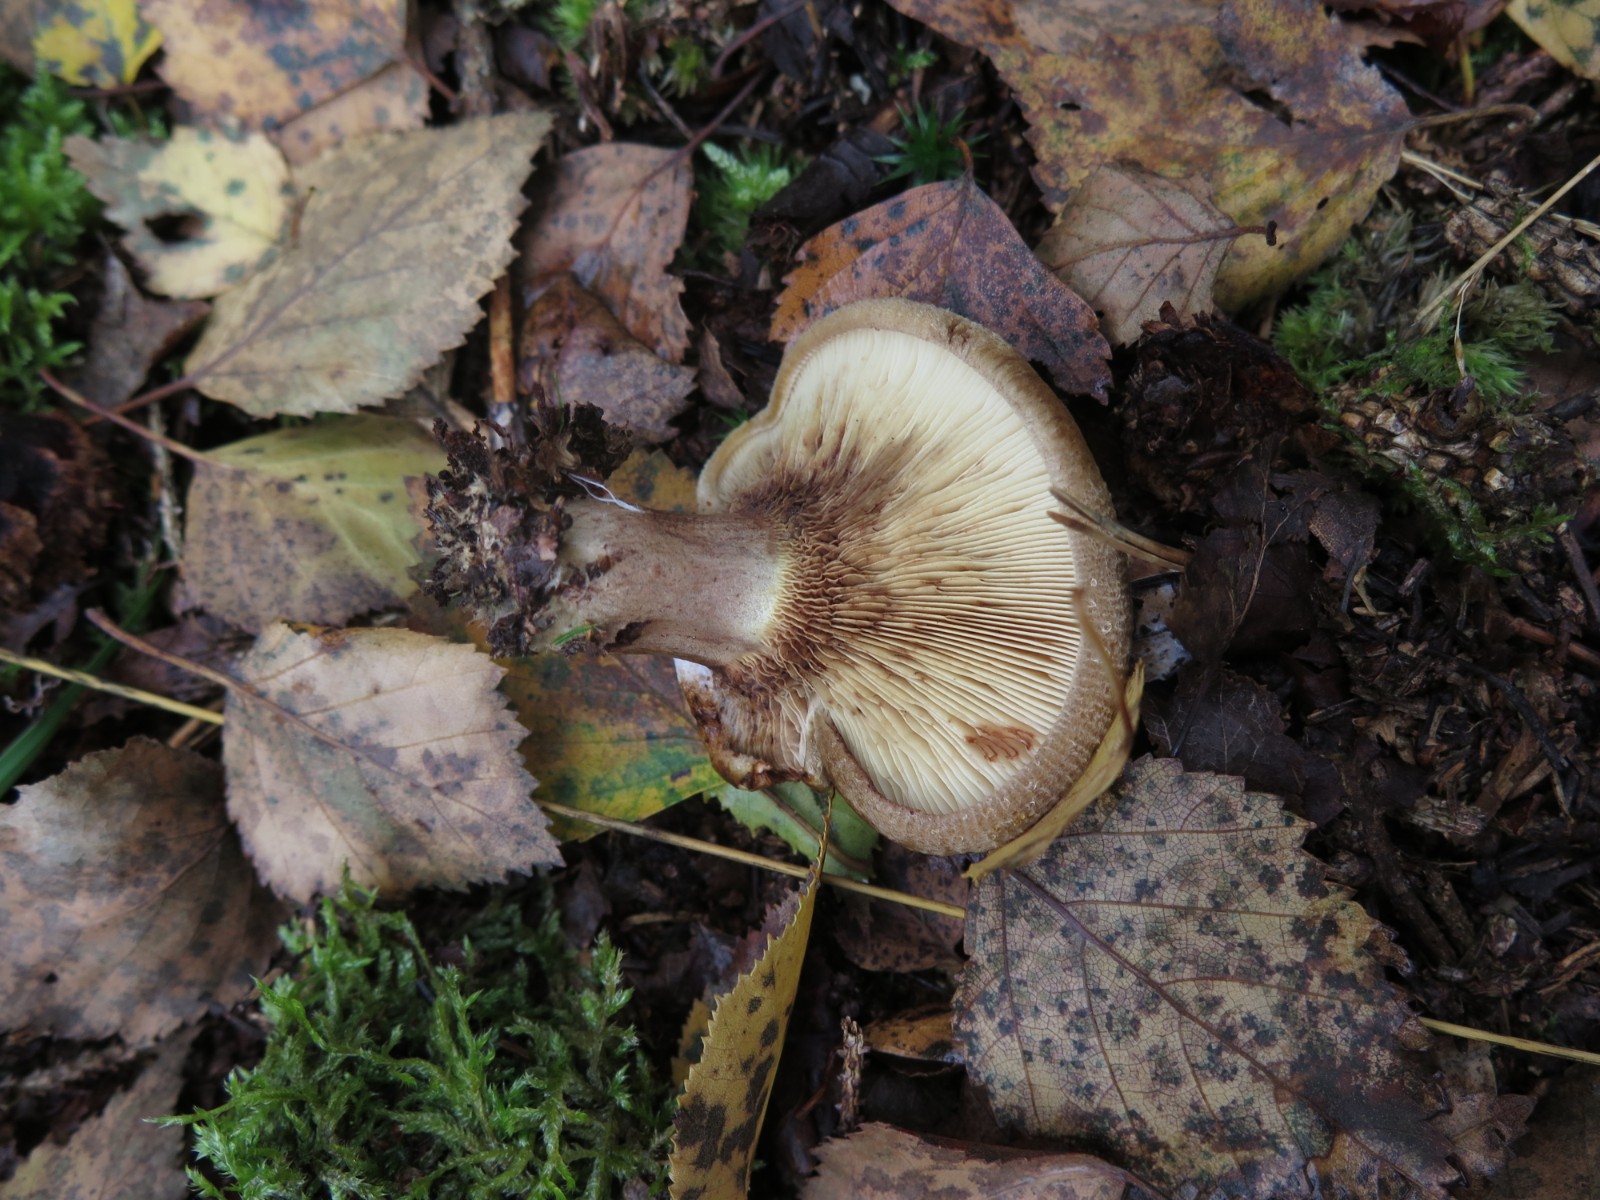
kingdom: Fungi
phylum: Basidiomycota
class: Agaricomycetes
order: Boletales
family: Paxillaceae
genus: Paxillus
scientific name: Paxillus rubicundulus
